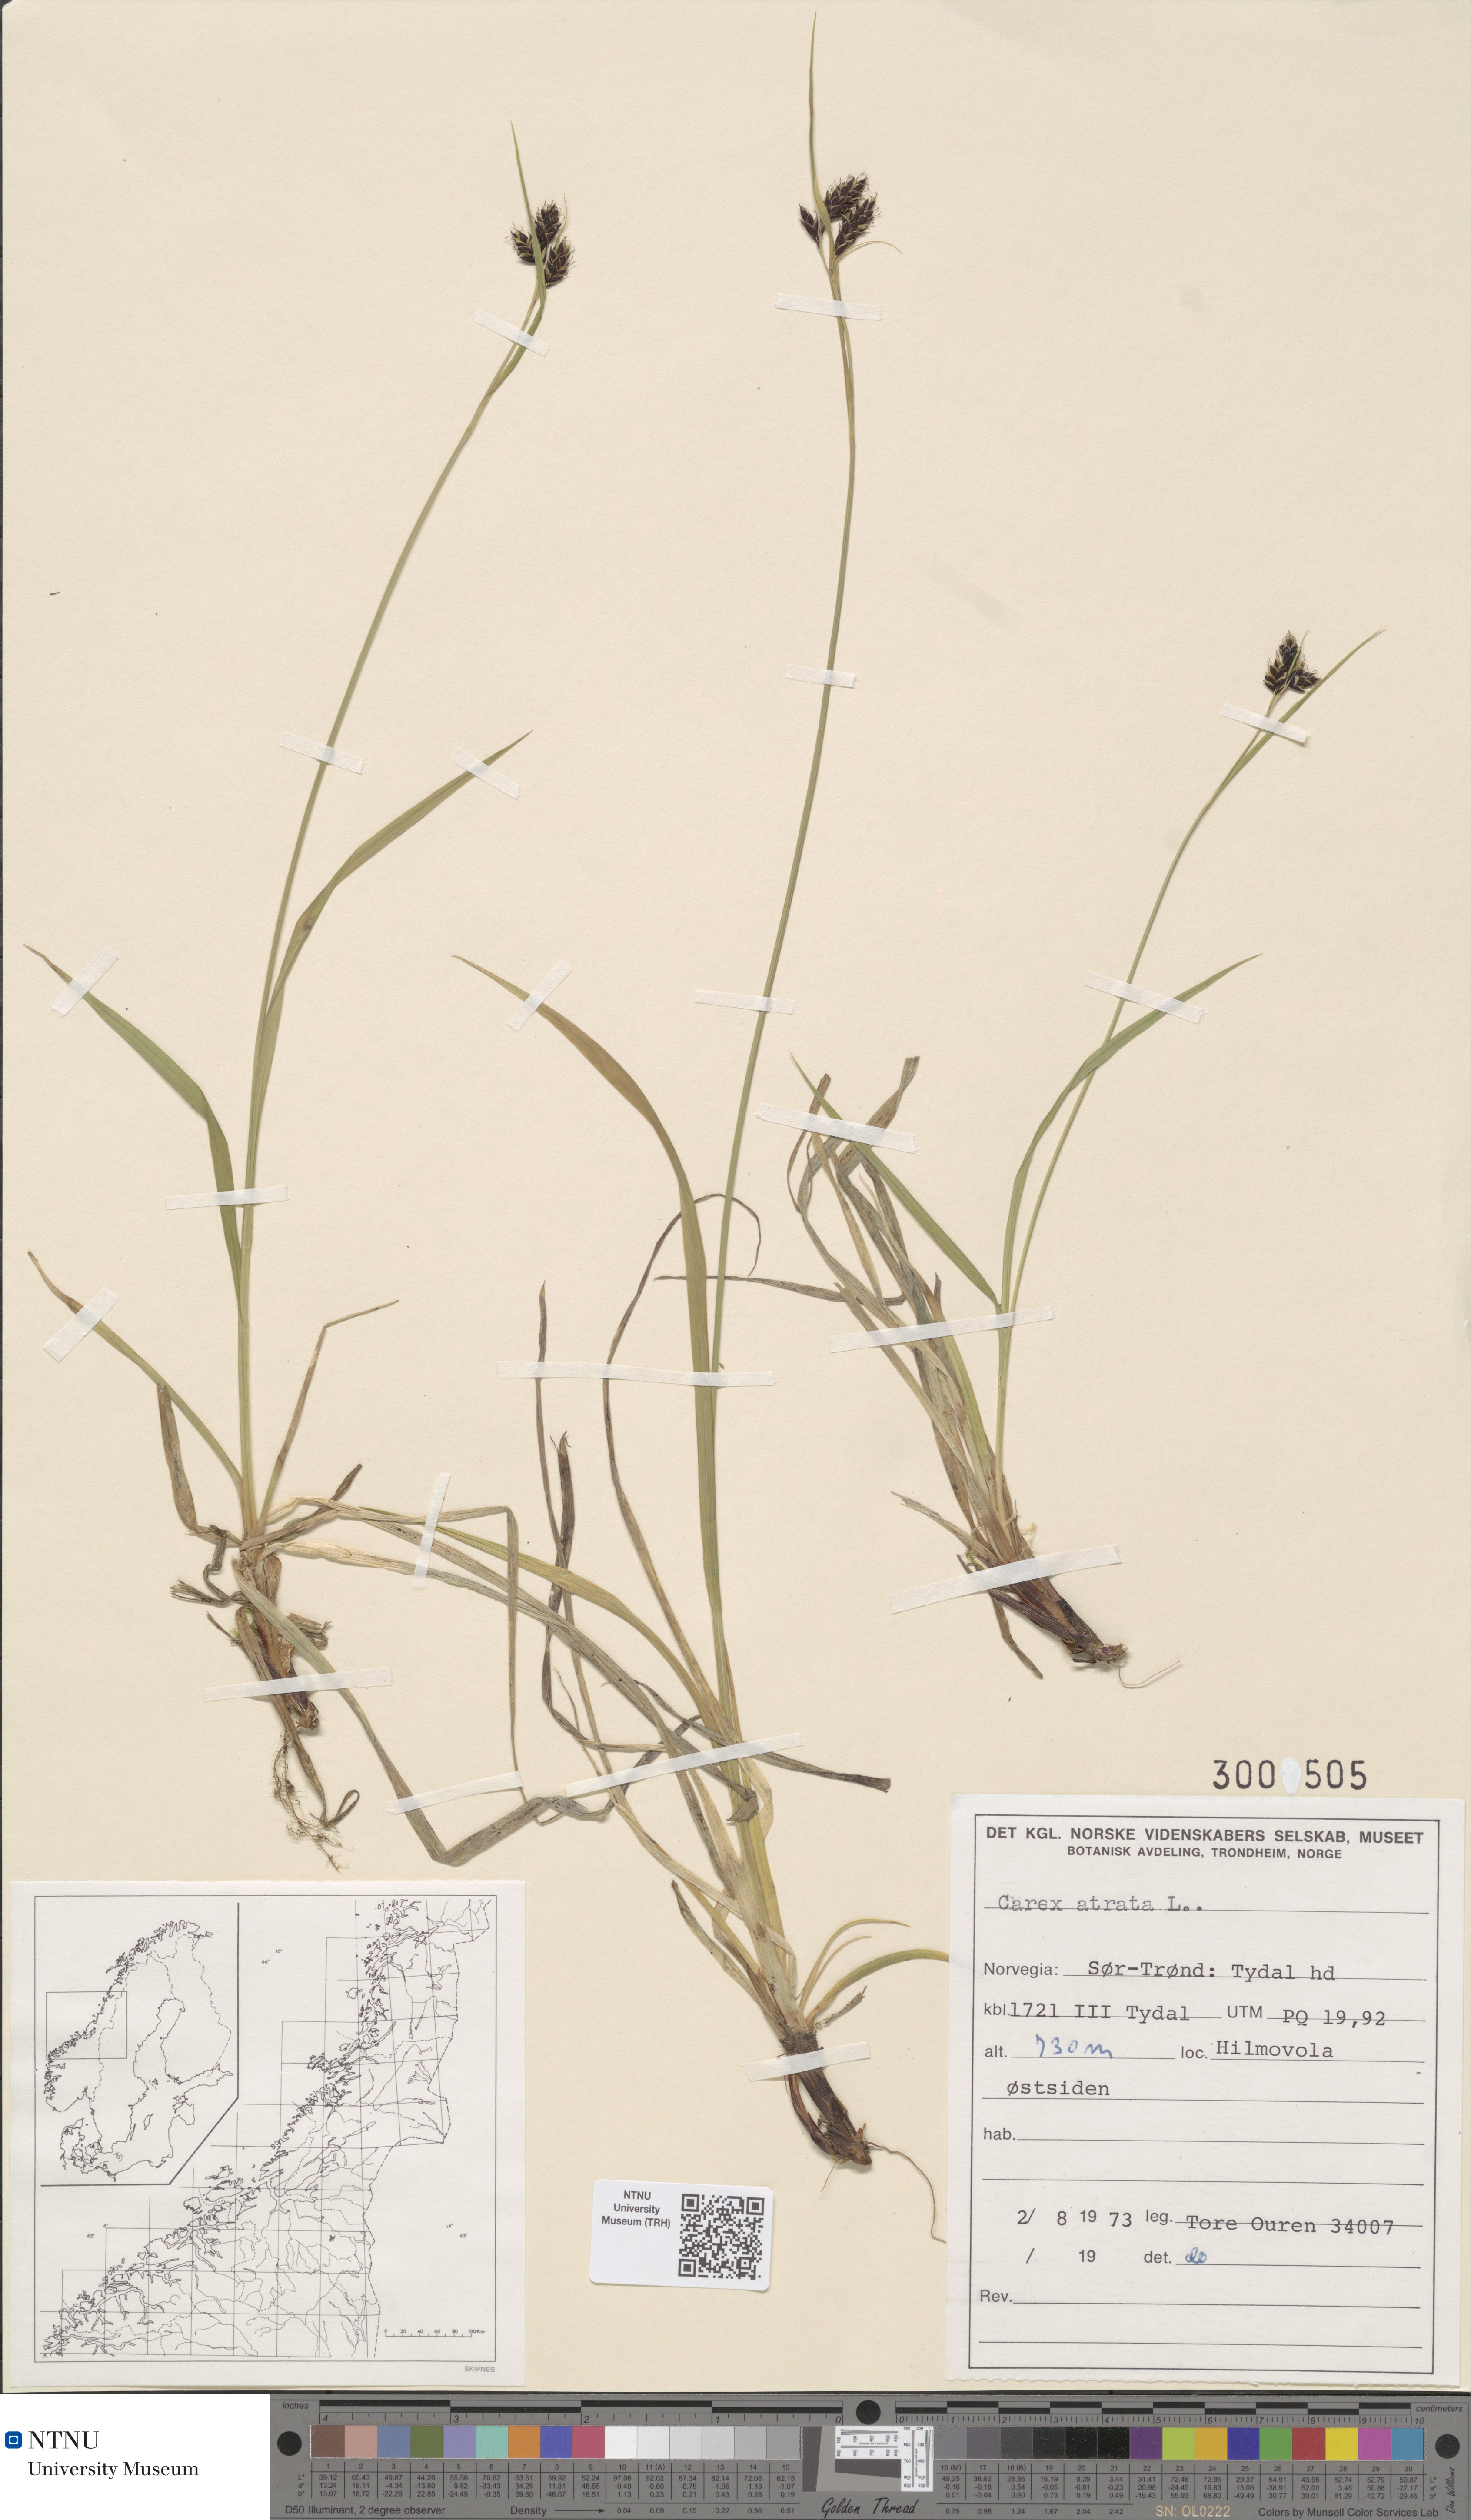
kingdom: Plantae
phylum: Tracheophyta
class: Liliopsida
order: Poales
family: Cyperaceae
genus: Carex
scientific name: Carex atrata
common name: Black alpine sedge
